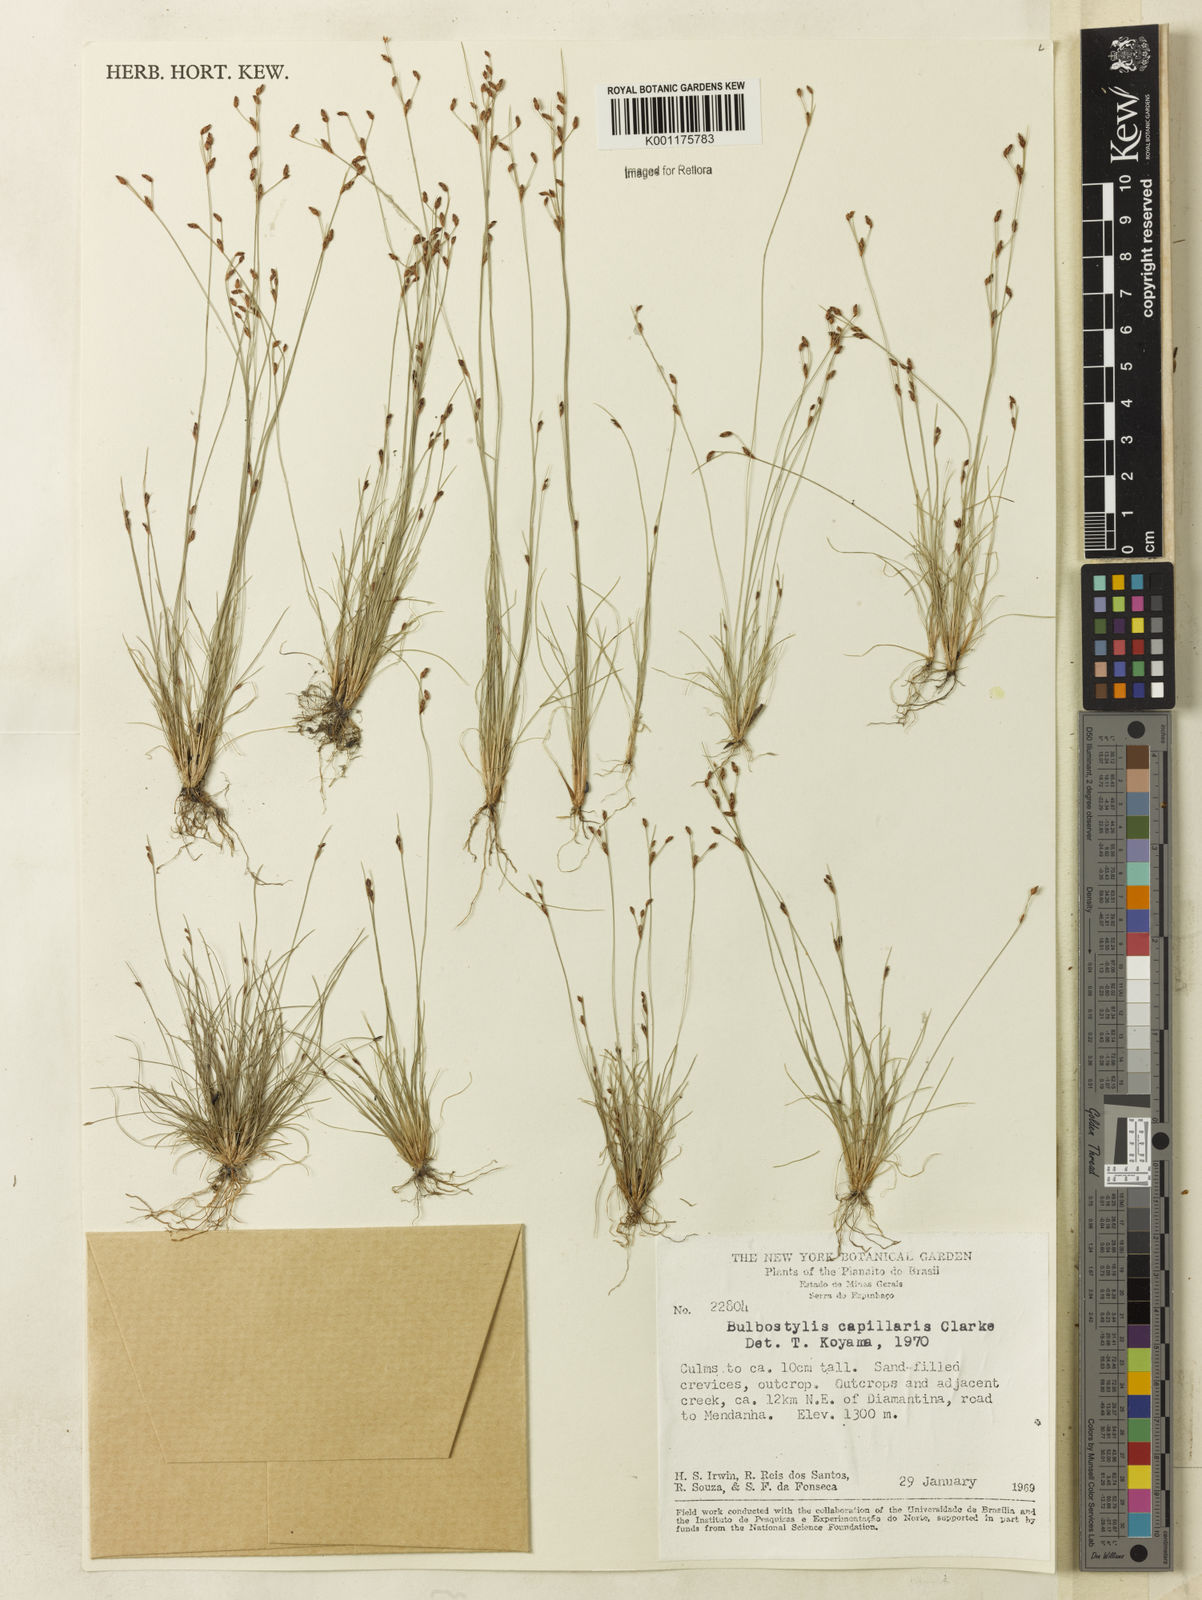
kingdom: Plantae
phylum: Tracheophyta
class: Liliopsida
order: Poales
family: Cyperaceae
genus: Bulbostylis
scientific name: Bulbostylis capillaris
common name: Densetuft hairsedge
